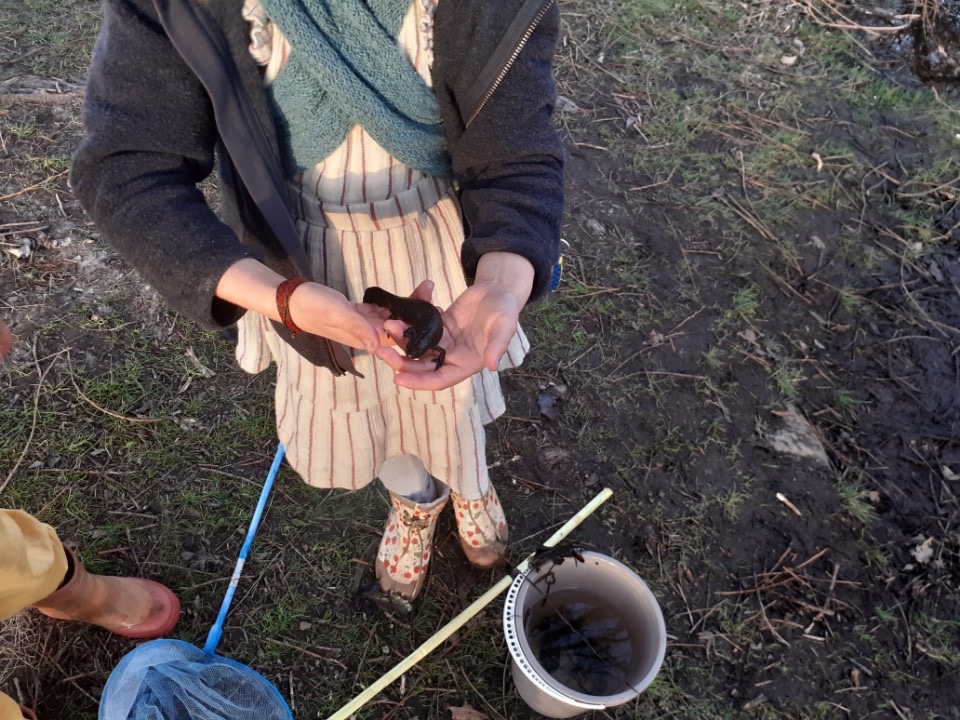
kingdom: Animalia
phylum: Chordata
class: Amphibia
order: Caudata
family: Salamandridae
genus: Triturus
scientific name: Triturus cristatus
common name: Stor vandsalamander
